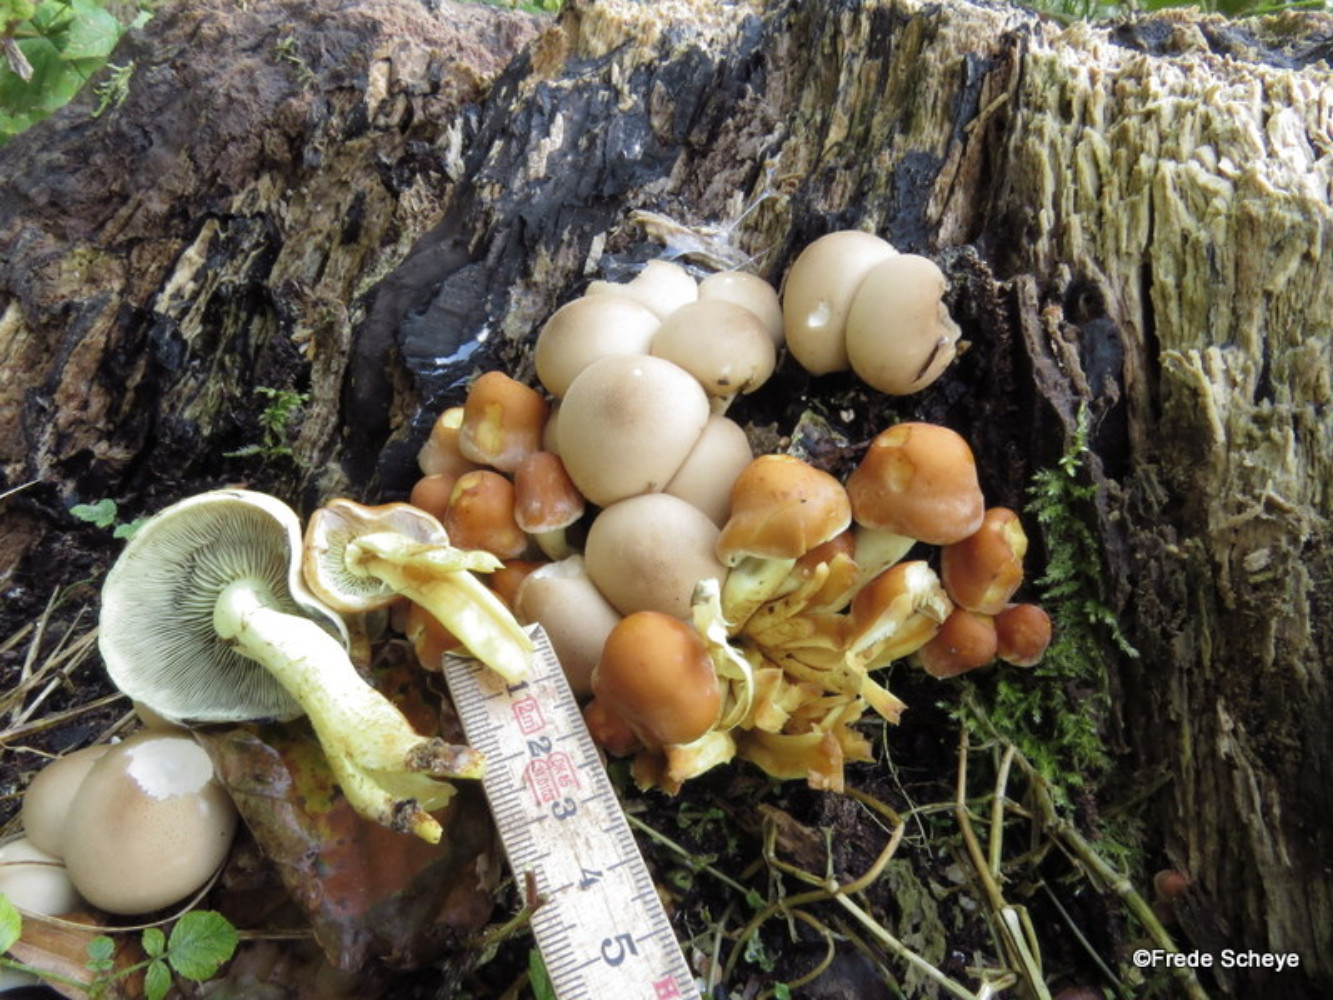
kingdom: Fungi
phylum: Basidiomycota
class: Agaricomycetes
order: Agaricales
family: Strophariaceae
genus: Hypholoma
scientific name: Hypholoma fasciculare
